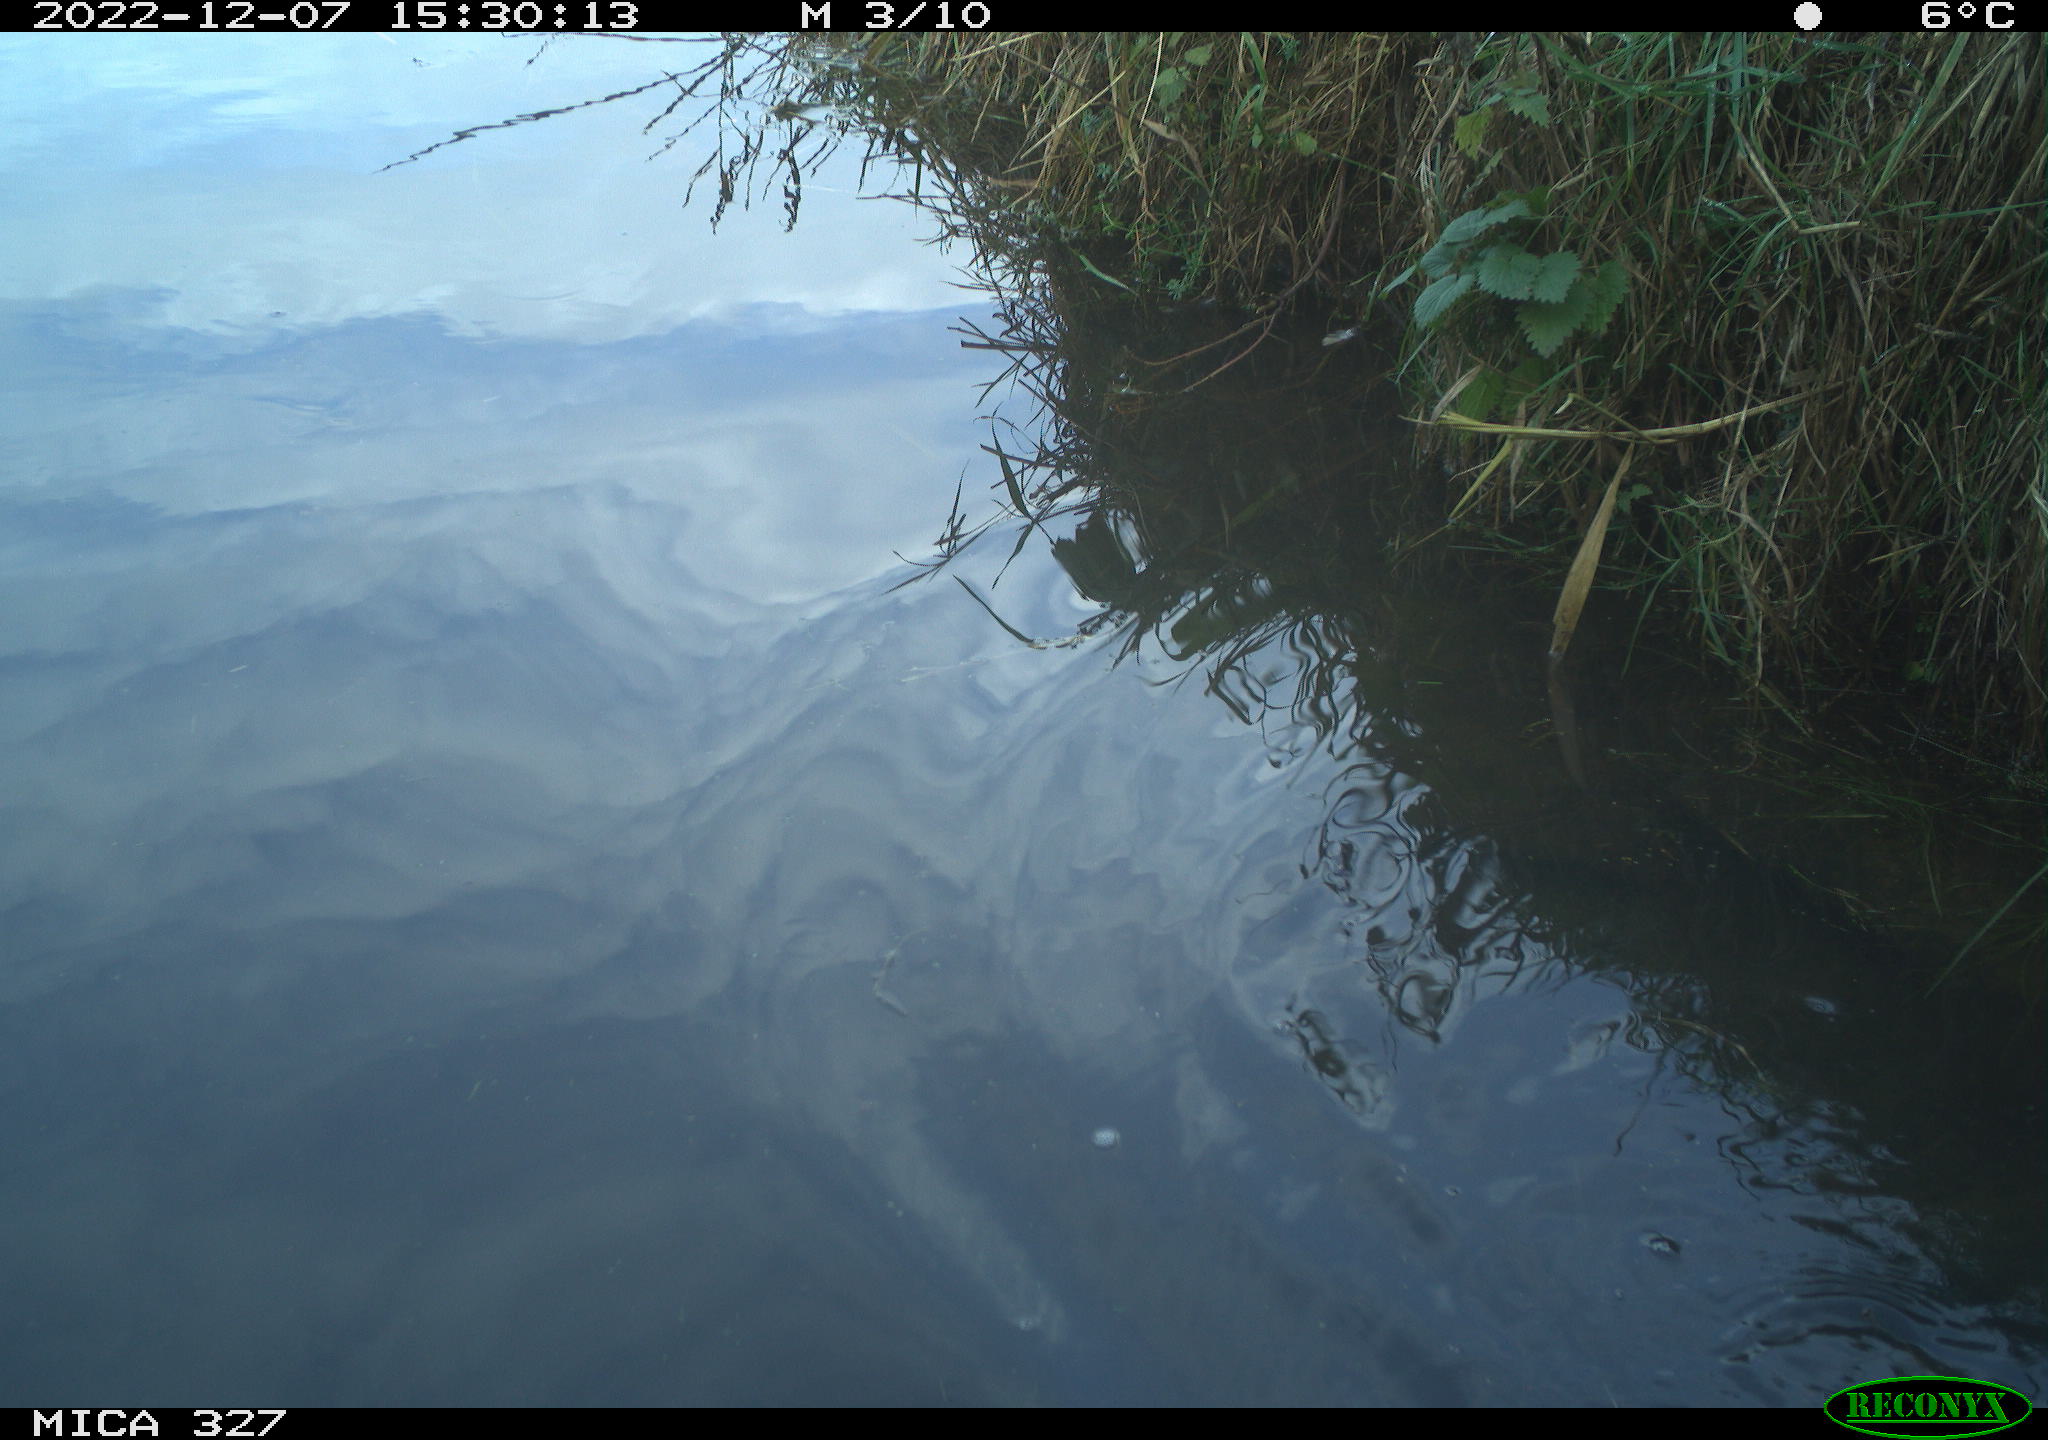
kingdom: Animalia
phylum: Chordata
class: Aves
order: Gruiformes
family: Rallidae
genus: Gallinula
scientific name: Gallinula chloropus
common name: Common moorhen
